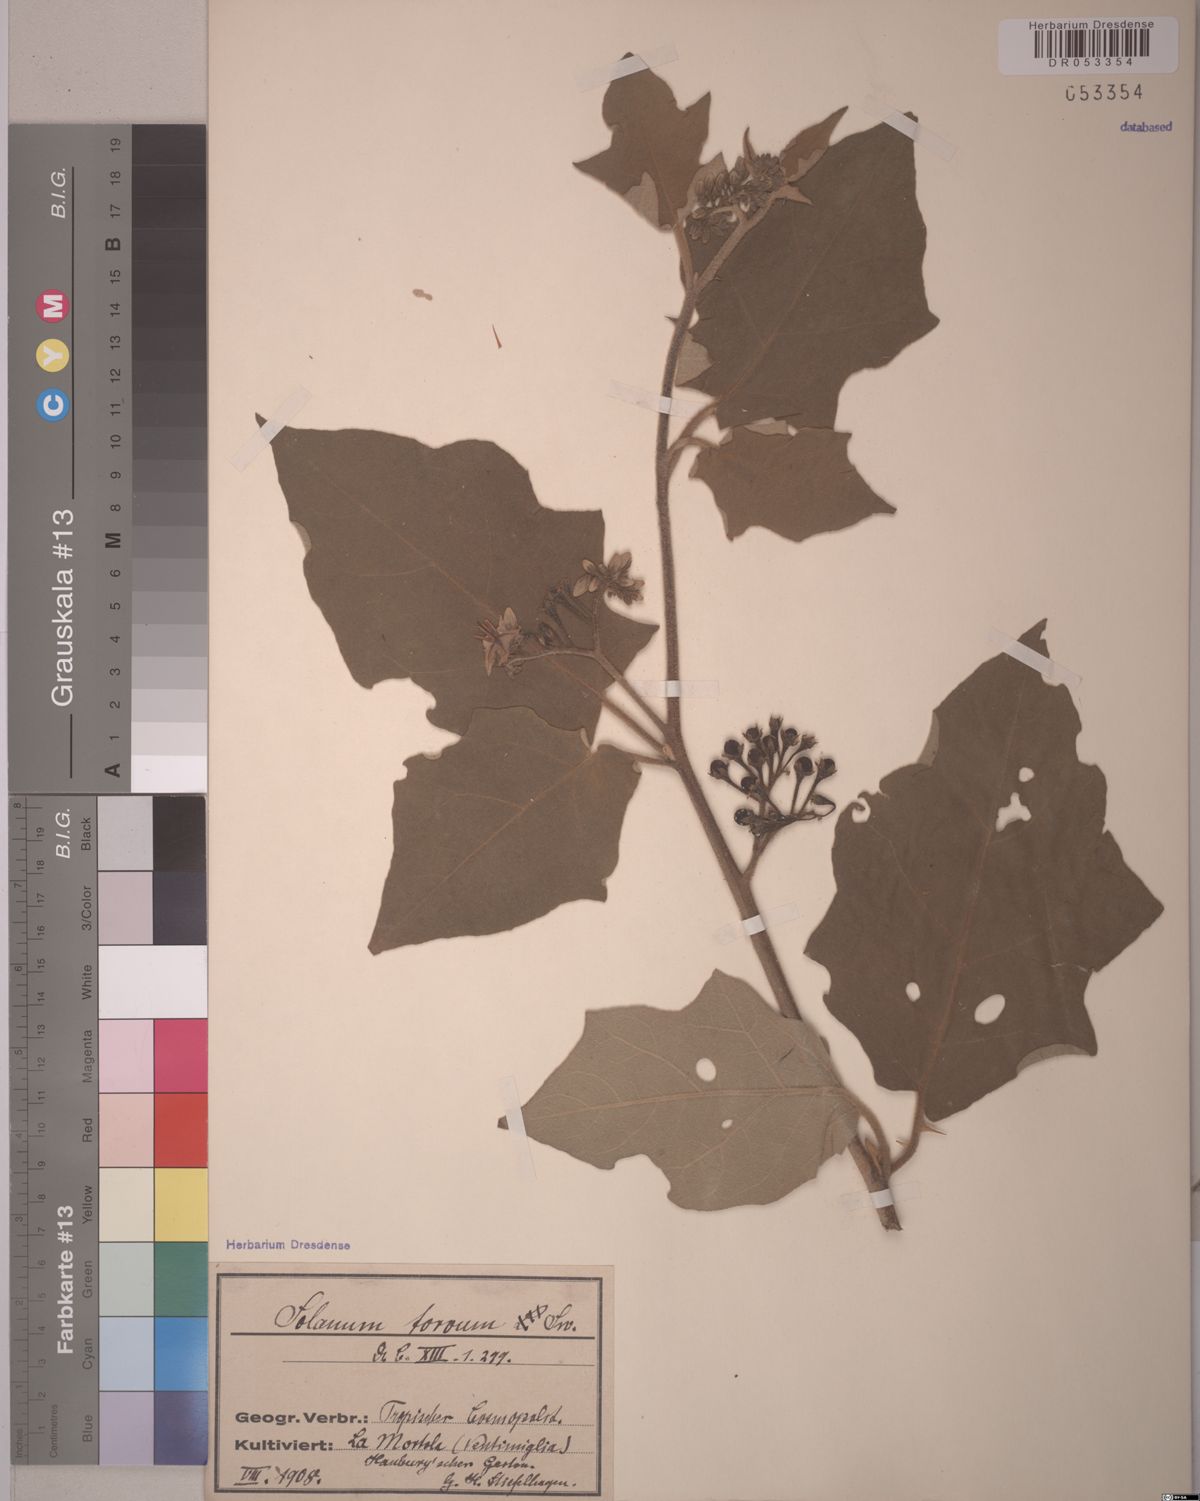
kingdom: Plantae
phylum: Tracheophyta
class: Magnoliopsida
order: Solanales
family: Solanaceae
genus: Solanum
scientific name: Solanum torvum
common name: Turkey berry
